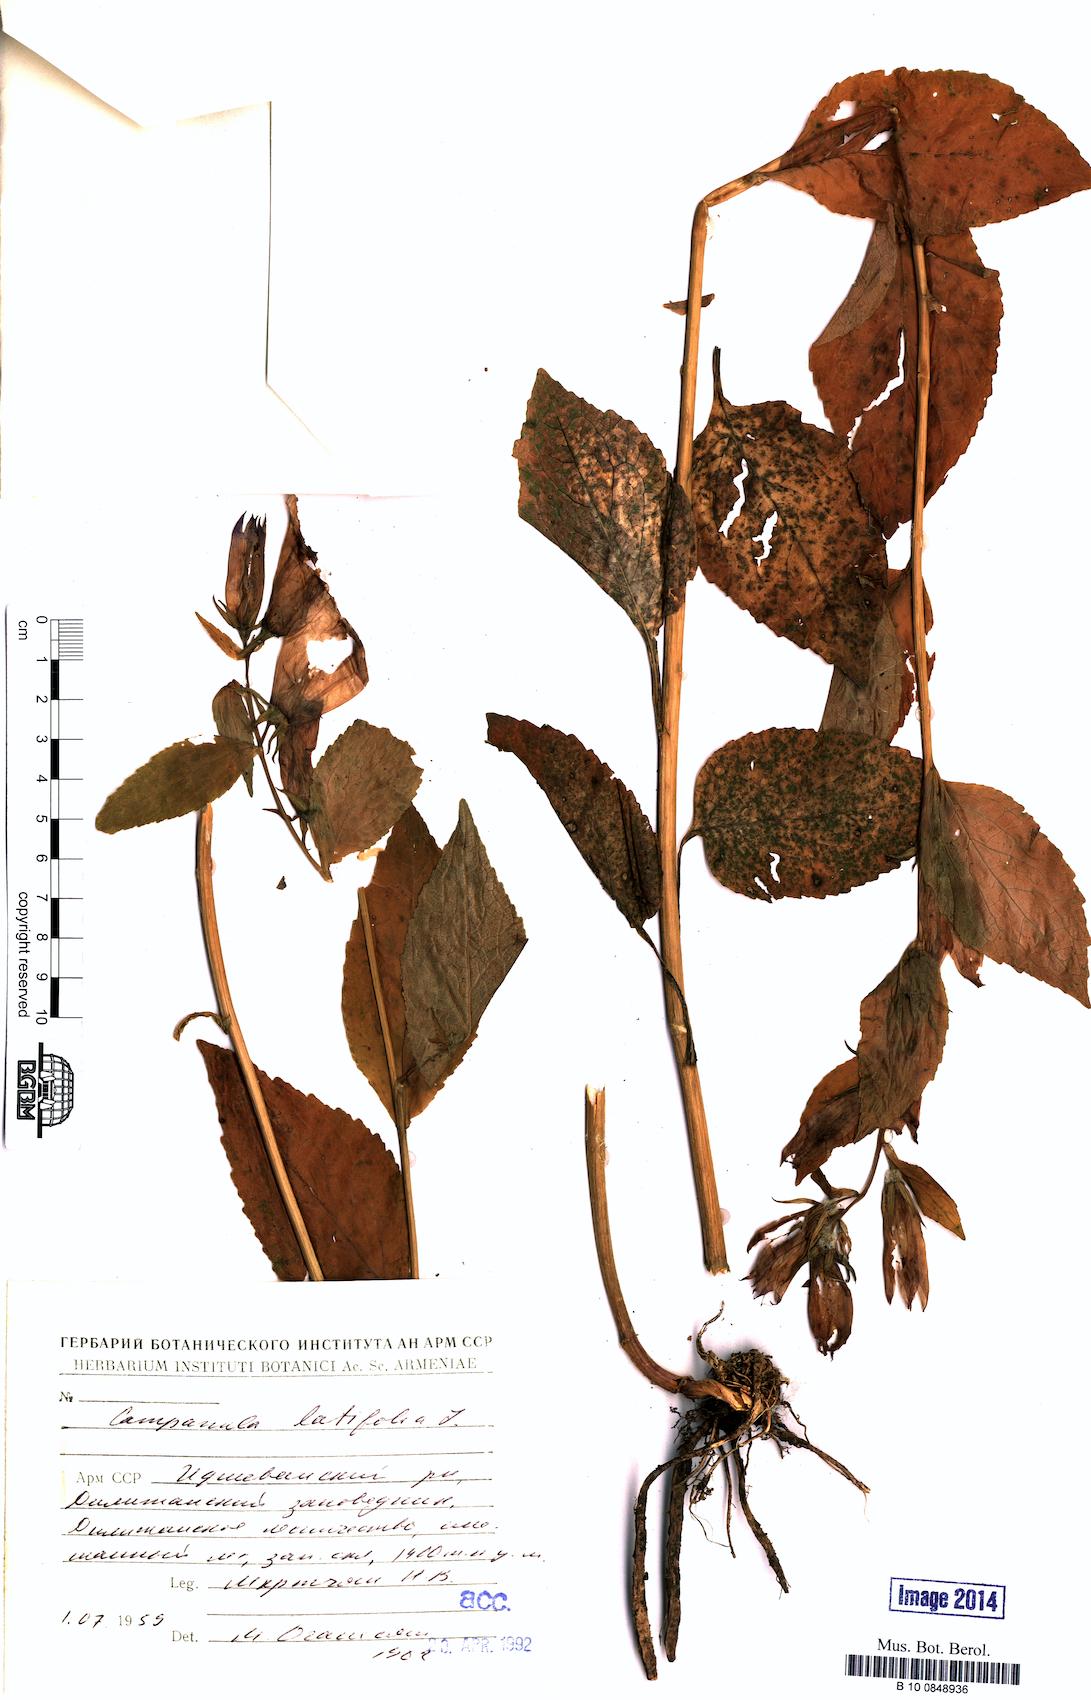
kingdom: Plantae
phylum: Tracheophyta
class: Magnoliopsida
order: Asterales
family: Campanulaceae
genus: Campanula
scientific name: Campanula latifolia
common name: Giant bellflower
